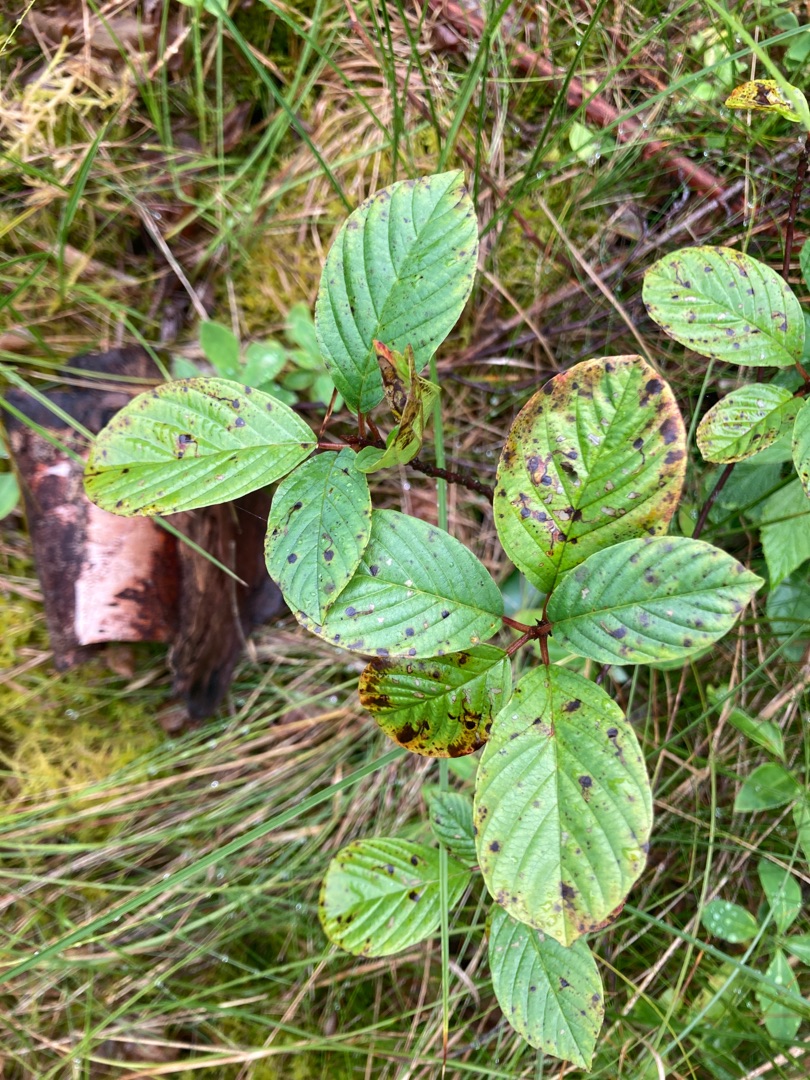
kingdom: Plantae
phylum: Tracheophyta
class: Magnoliopsida
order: Rosales
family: Rhamnaceae
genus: Frangula
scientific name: Frangula alnus
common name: Tørst
